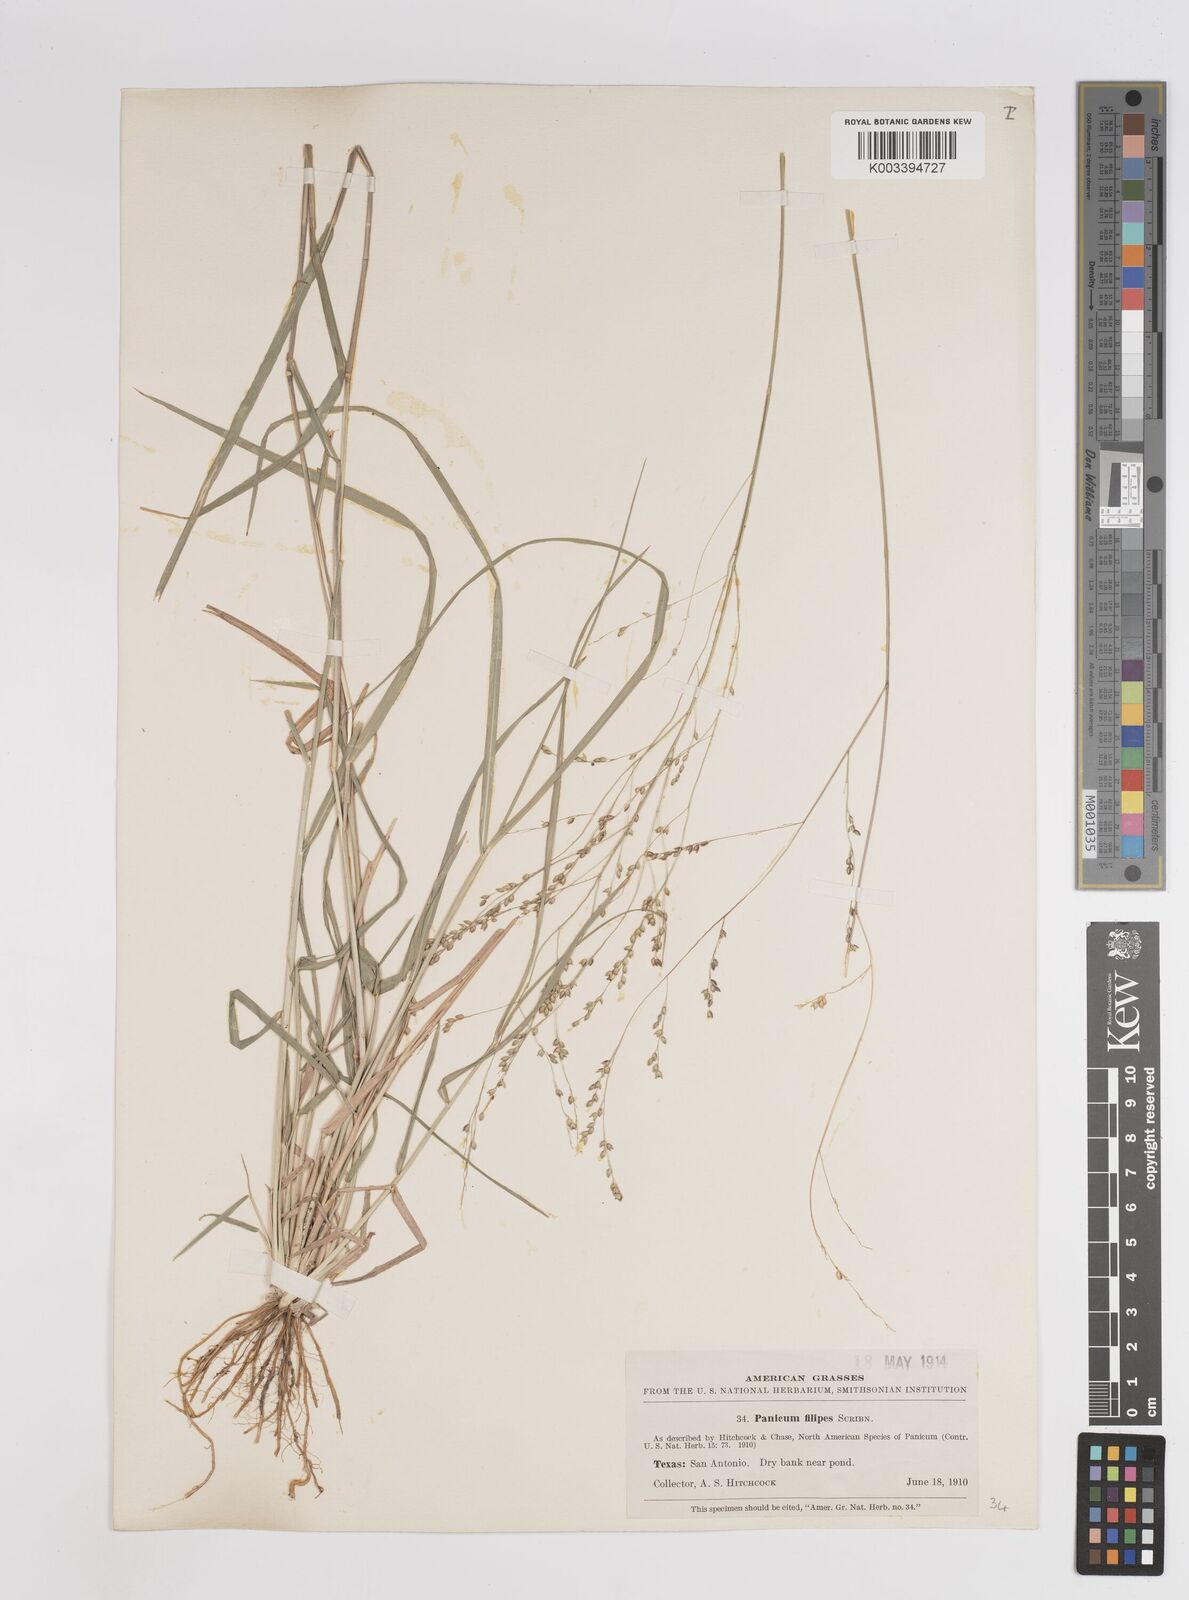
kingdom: Plantae
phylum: Tracheophyta
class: Liliopsida
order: Poales
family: Poaceae
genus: Panicum
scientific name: Panicum hallii
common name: Hall's witchgrass
